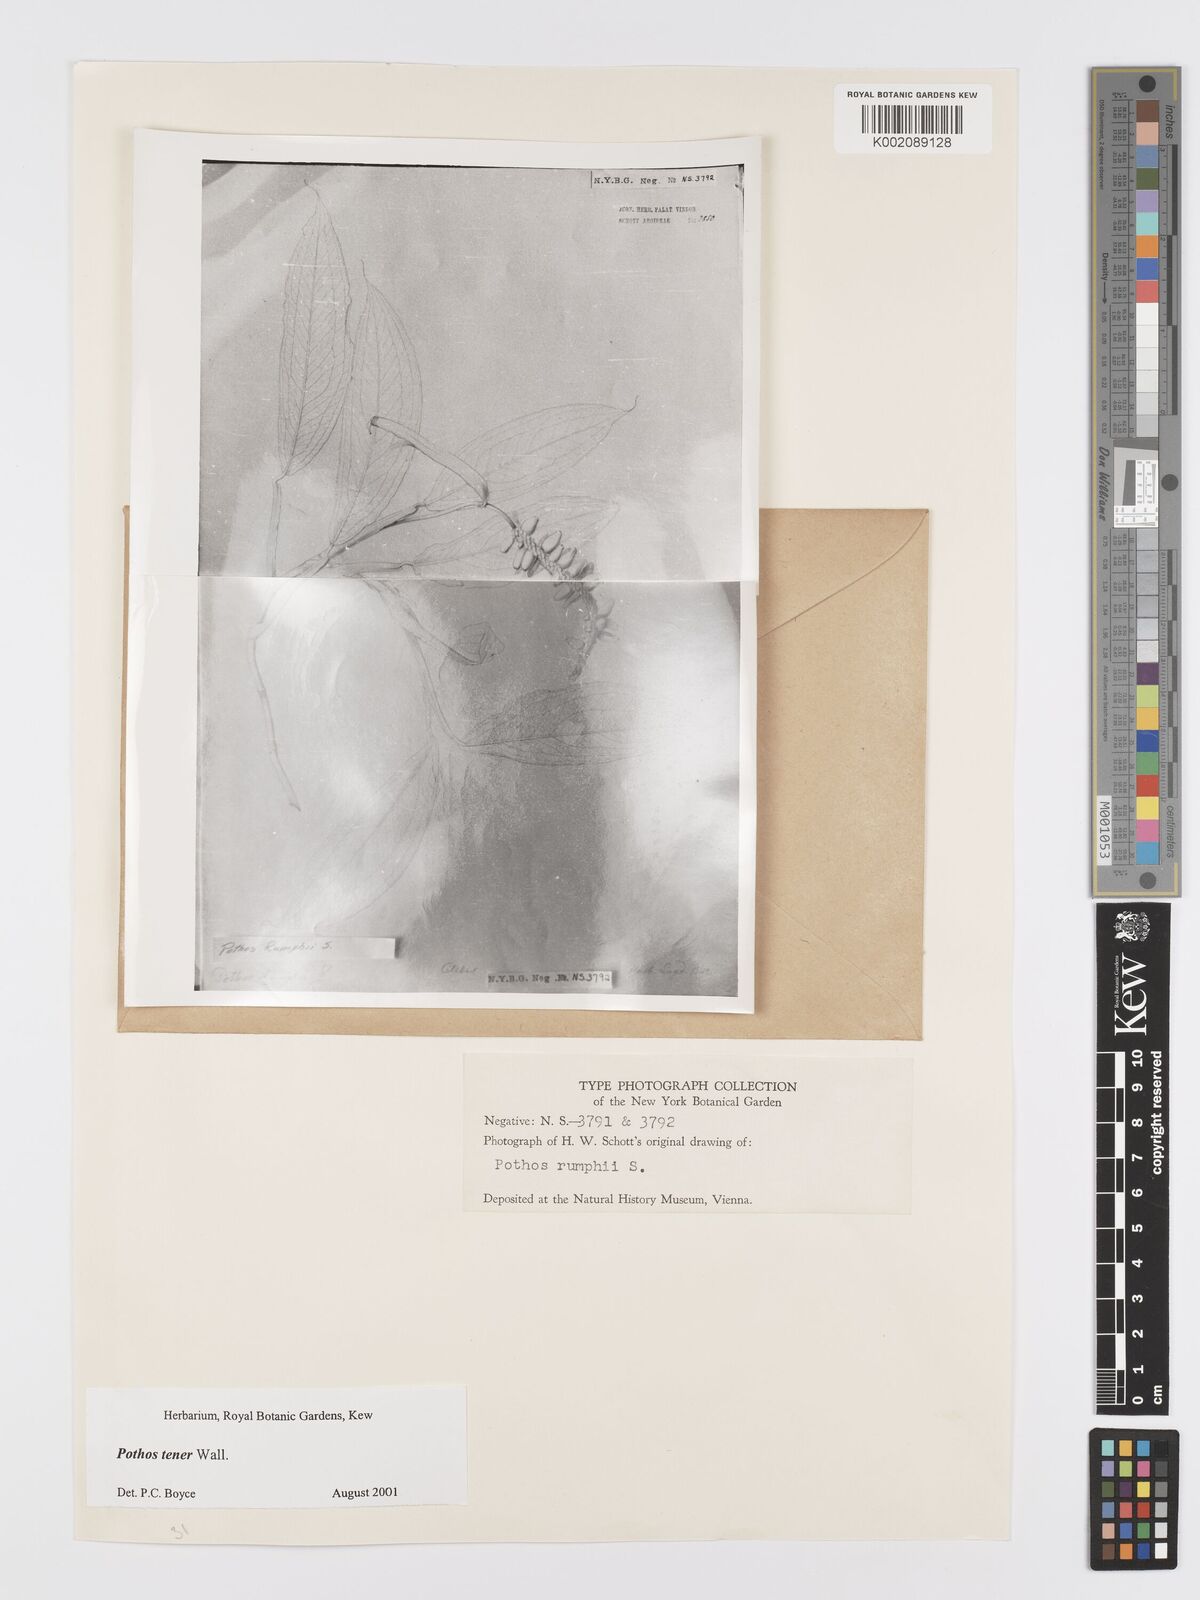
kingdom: Plantae
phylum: Tracheophyta
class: Liliopsida
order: Alismatales
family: Araceae
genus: Pothos
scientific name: Pothos tener
